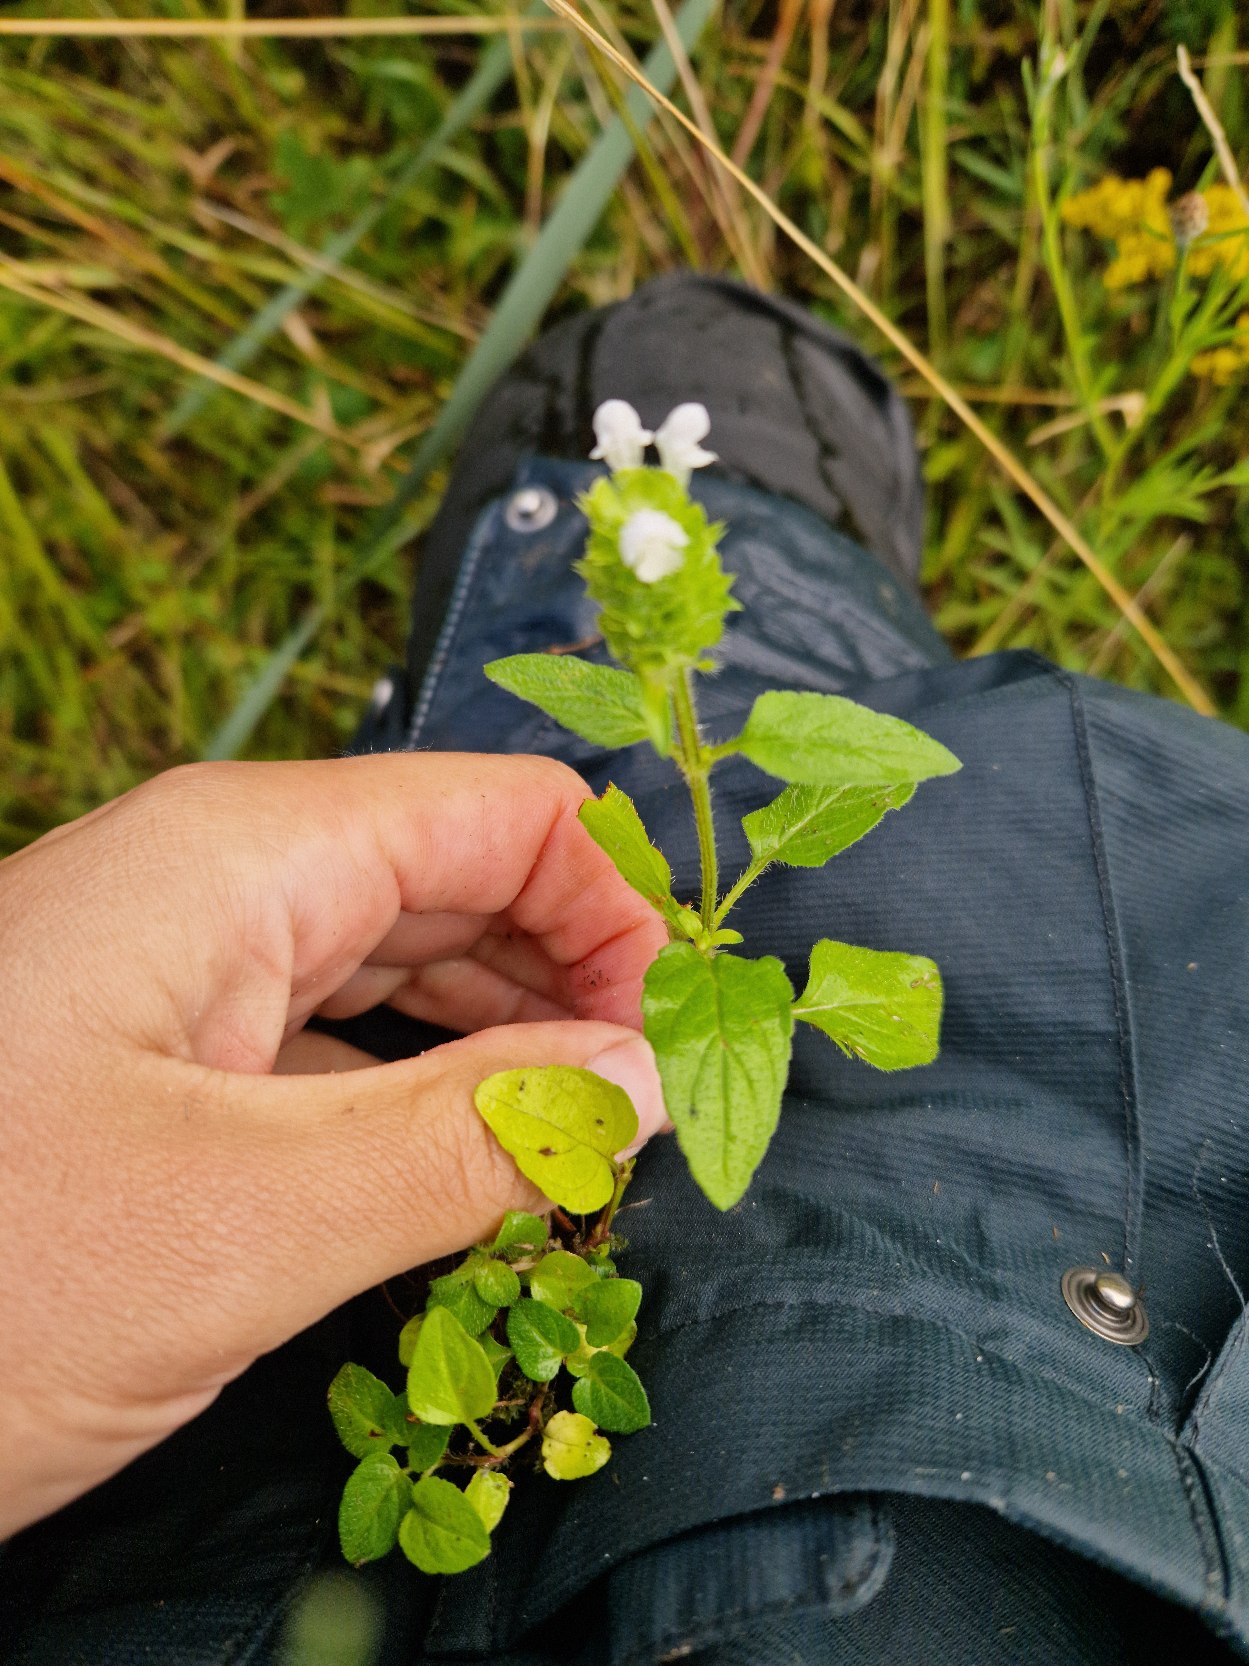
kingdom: Plantae
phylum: Tracheophyta
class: Magnoliopsida
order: Lamiales
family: Lamiaceae
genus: Prunella
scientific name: Prunella vulgaris
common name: Almindelig brunelle
